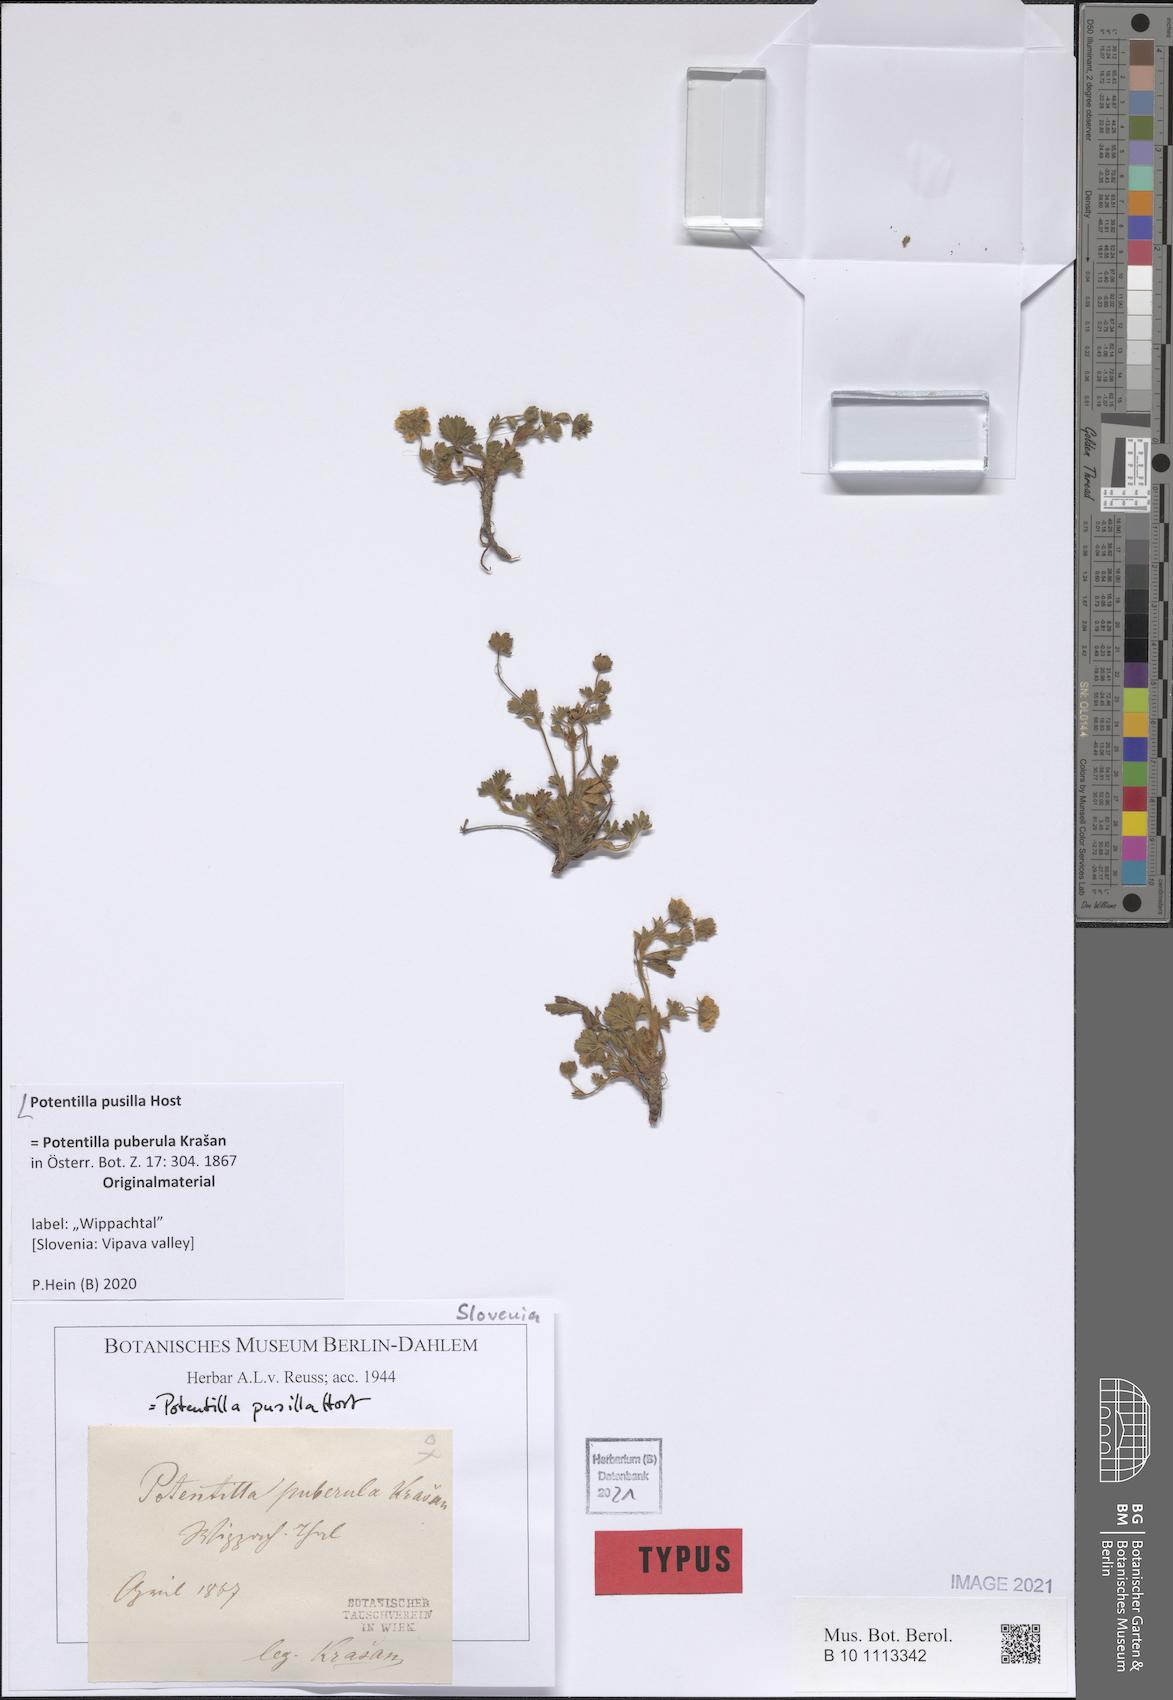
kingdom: Plantae
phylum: Tracheophyta
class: Magnoliopsida
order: Rosales
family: Rosaceae
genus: Potentilla
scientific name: Potentilla pusilla
